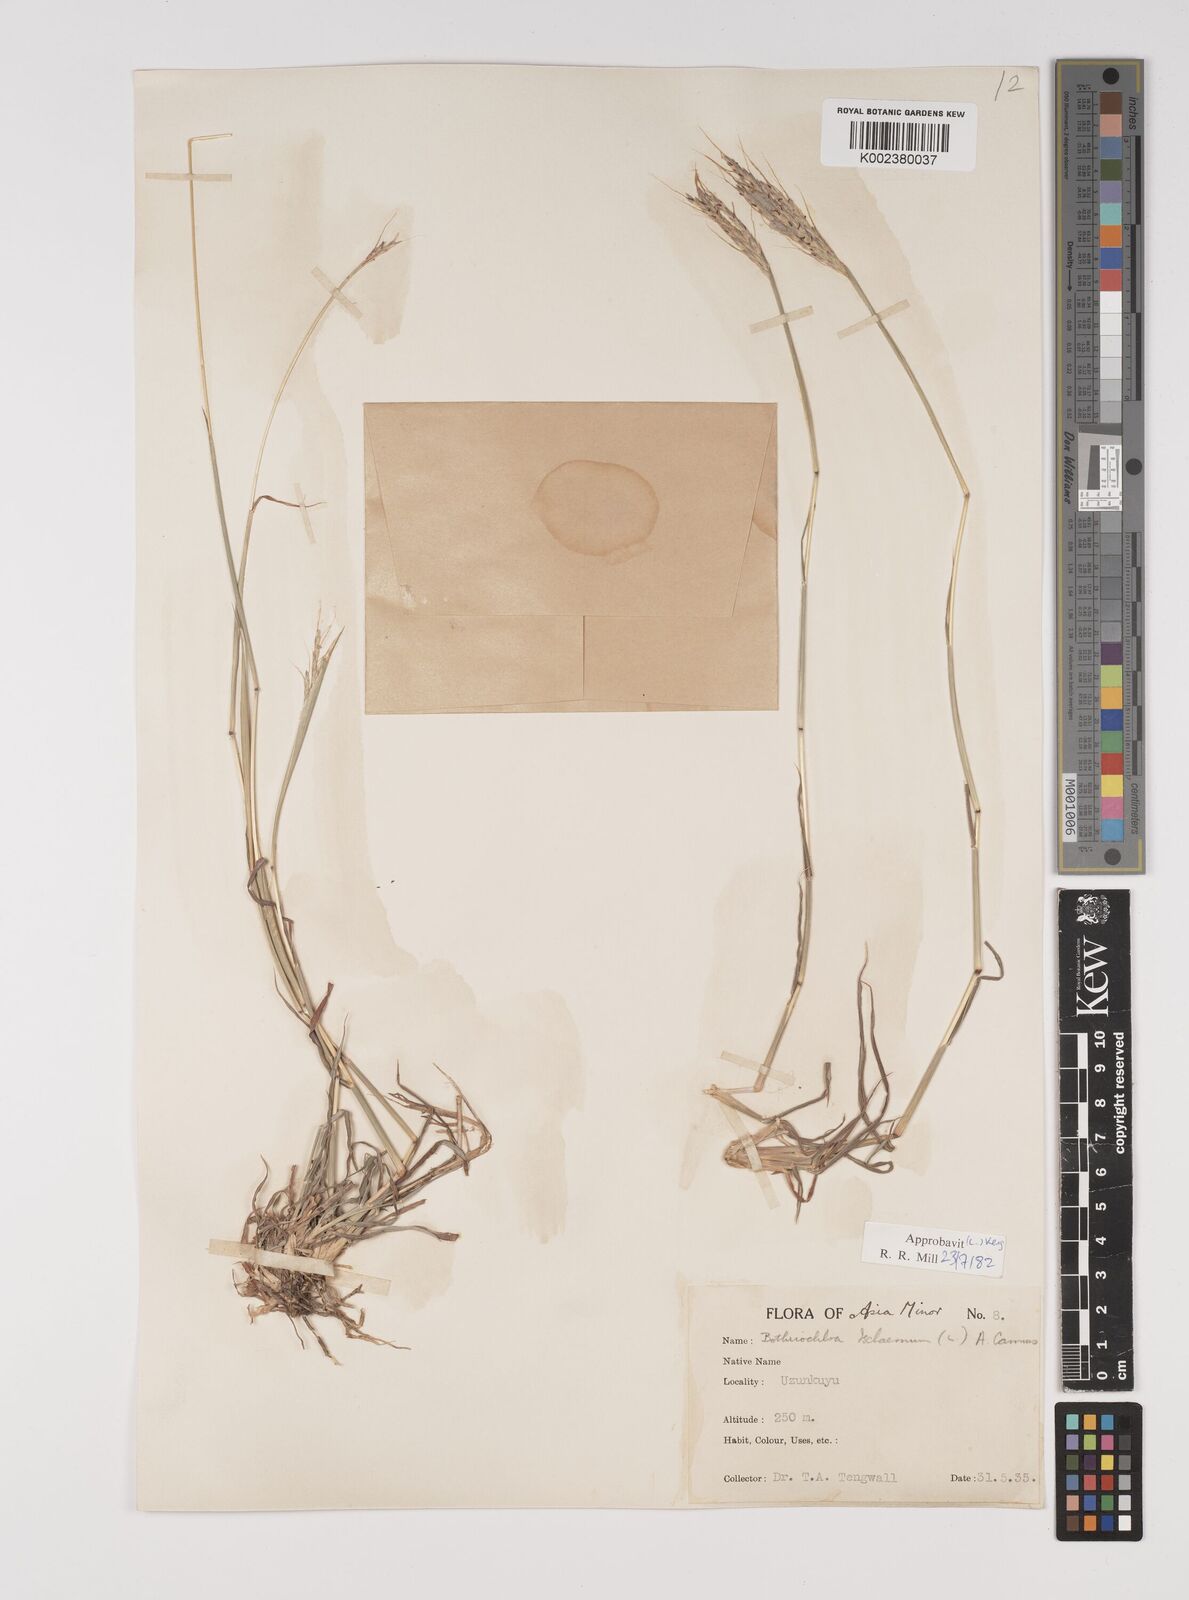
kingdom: Plantae
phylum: Tracheophyta
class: Liliopsida
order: Poales
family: Poaceae
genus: Bothriochloa
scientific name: Bothriochloa ischaemum
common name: Yellow bluestem
